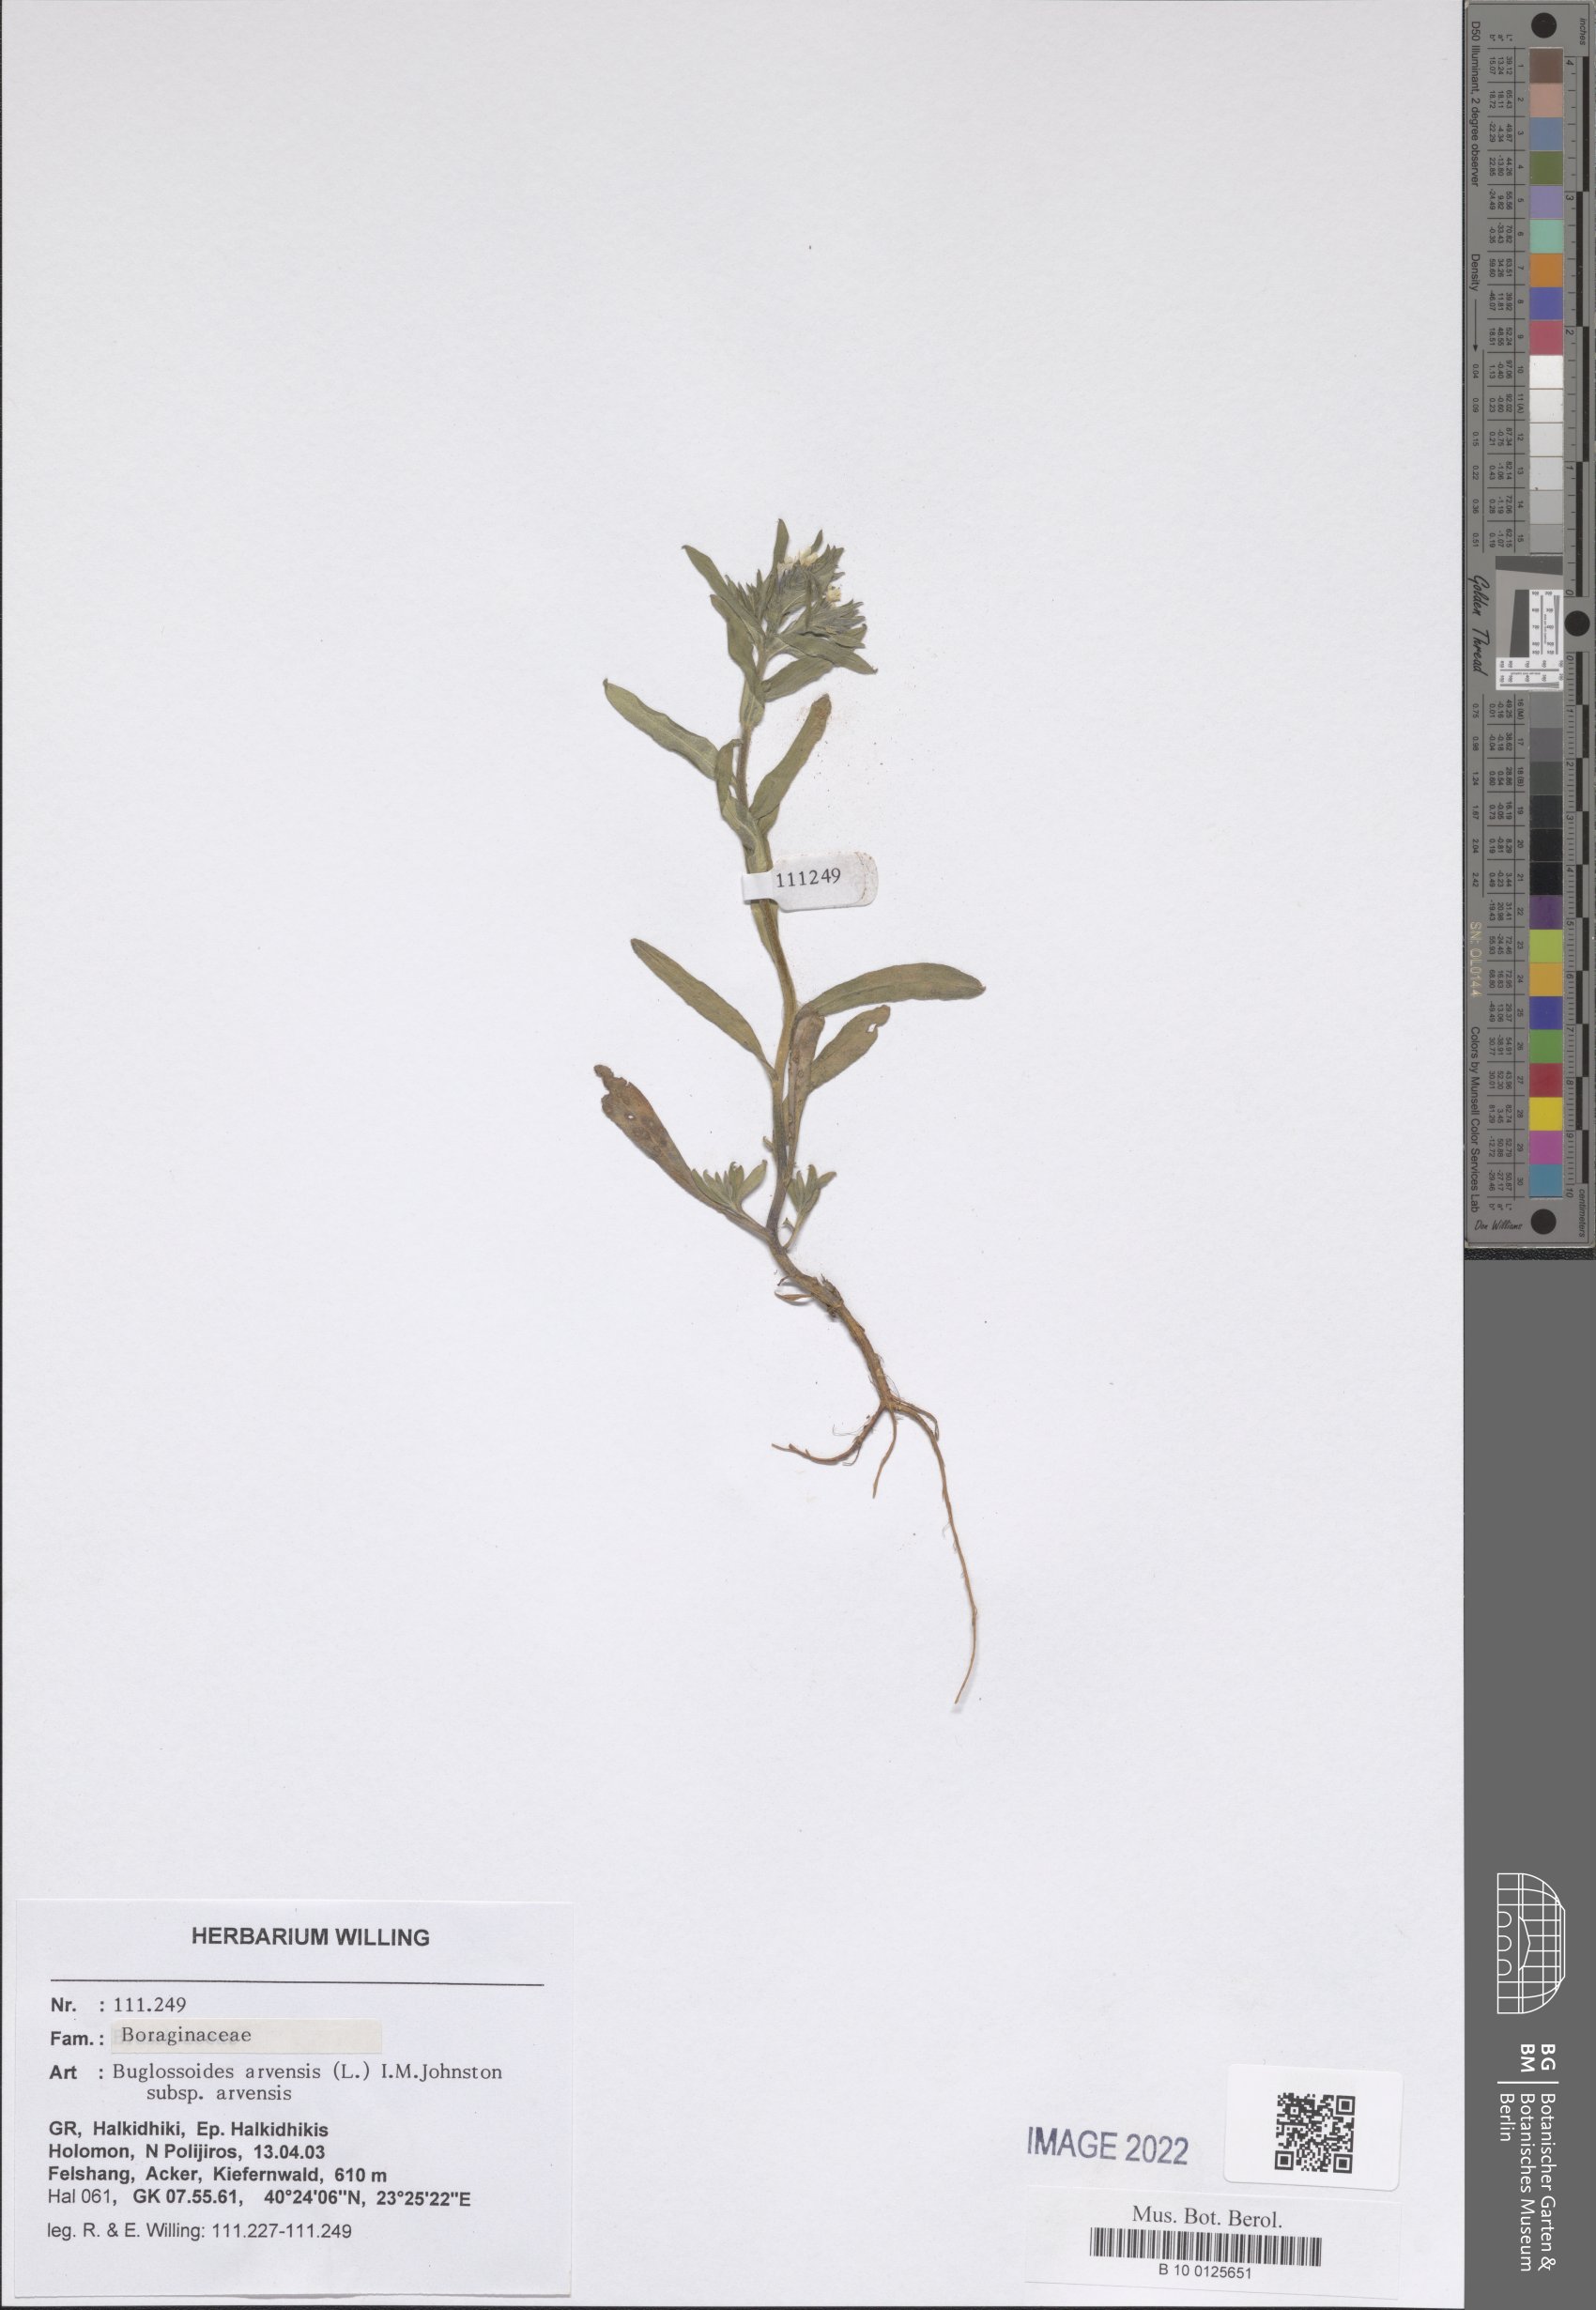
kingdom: Plantae
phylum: Tracheophyta
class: Magnoliopsida
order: Boraginales
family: Boraginaceae
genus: Buglossoides
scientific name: Buglossoides arvensis
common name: Corn gromwell
